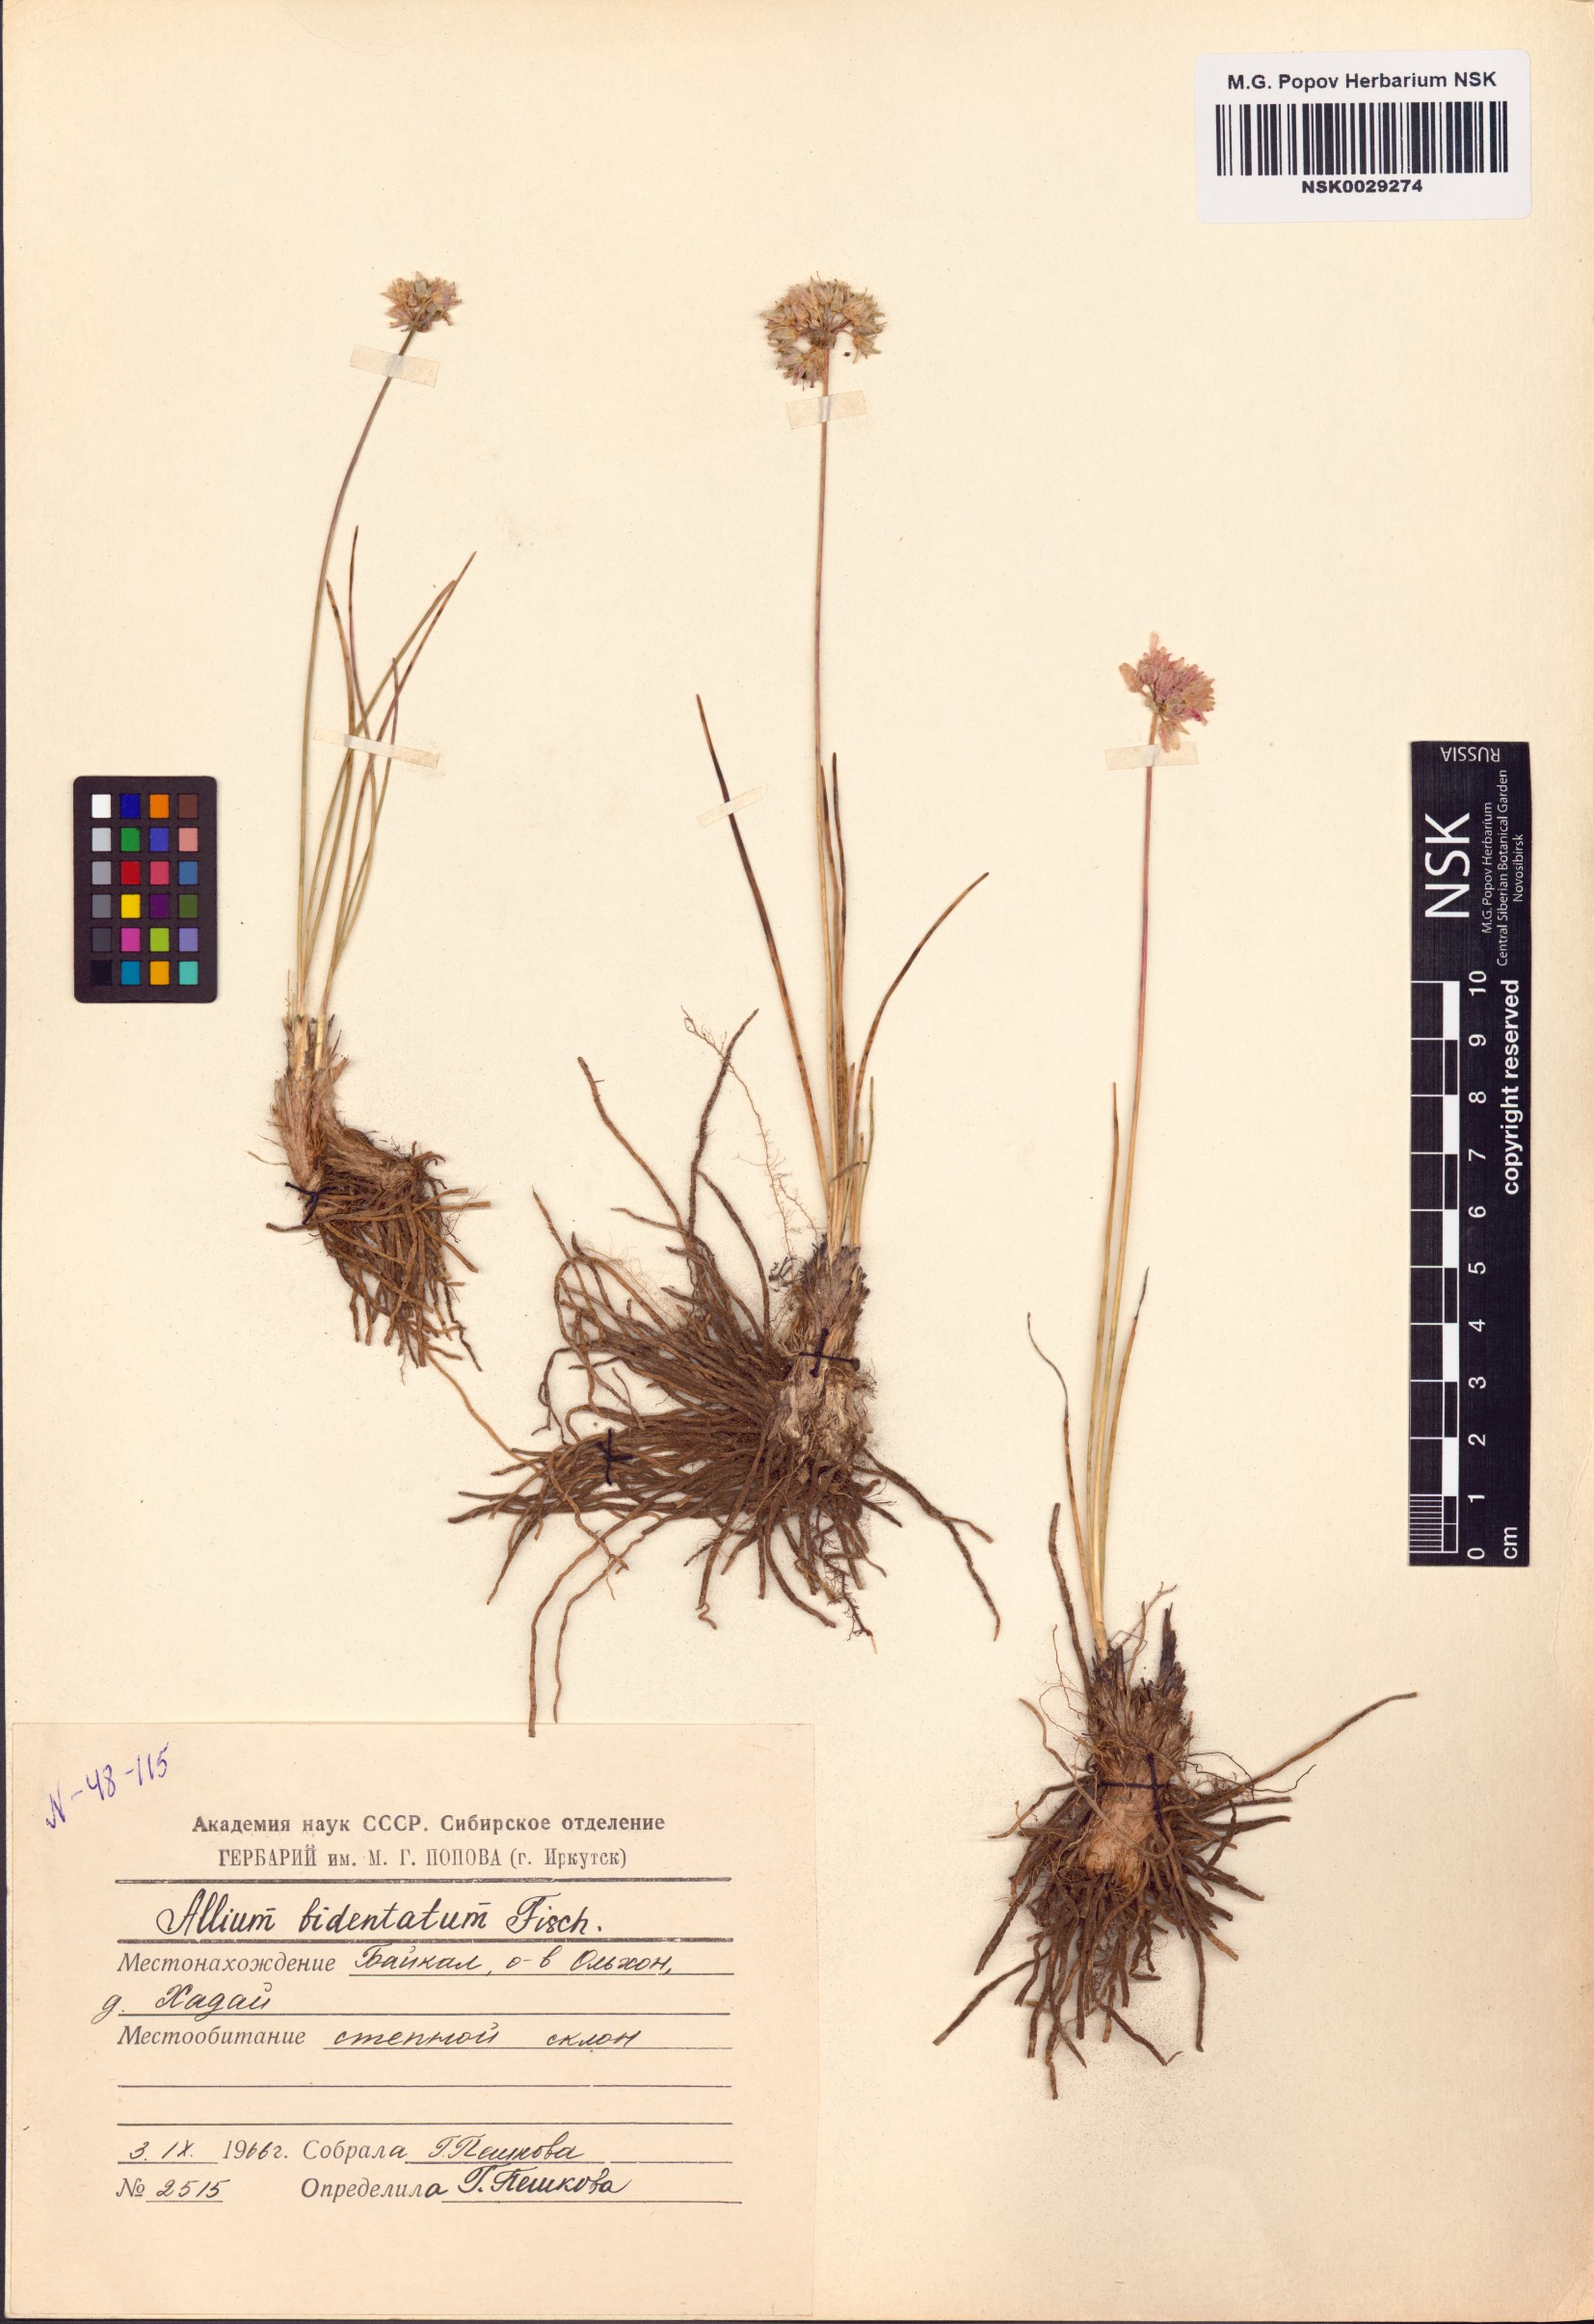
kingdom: Plantae
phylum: Tracheophyta
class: Liliopsida
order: Asparagales
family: Amaryllidaceae
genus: Allium
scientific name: Allium bidentatum
